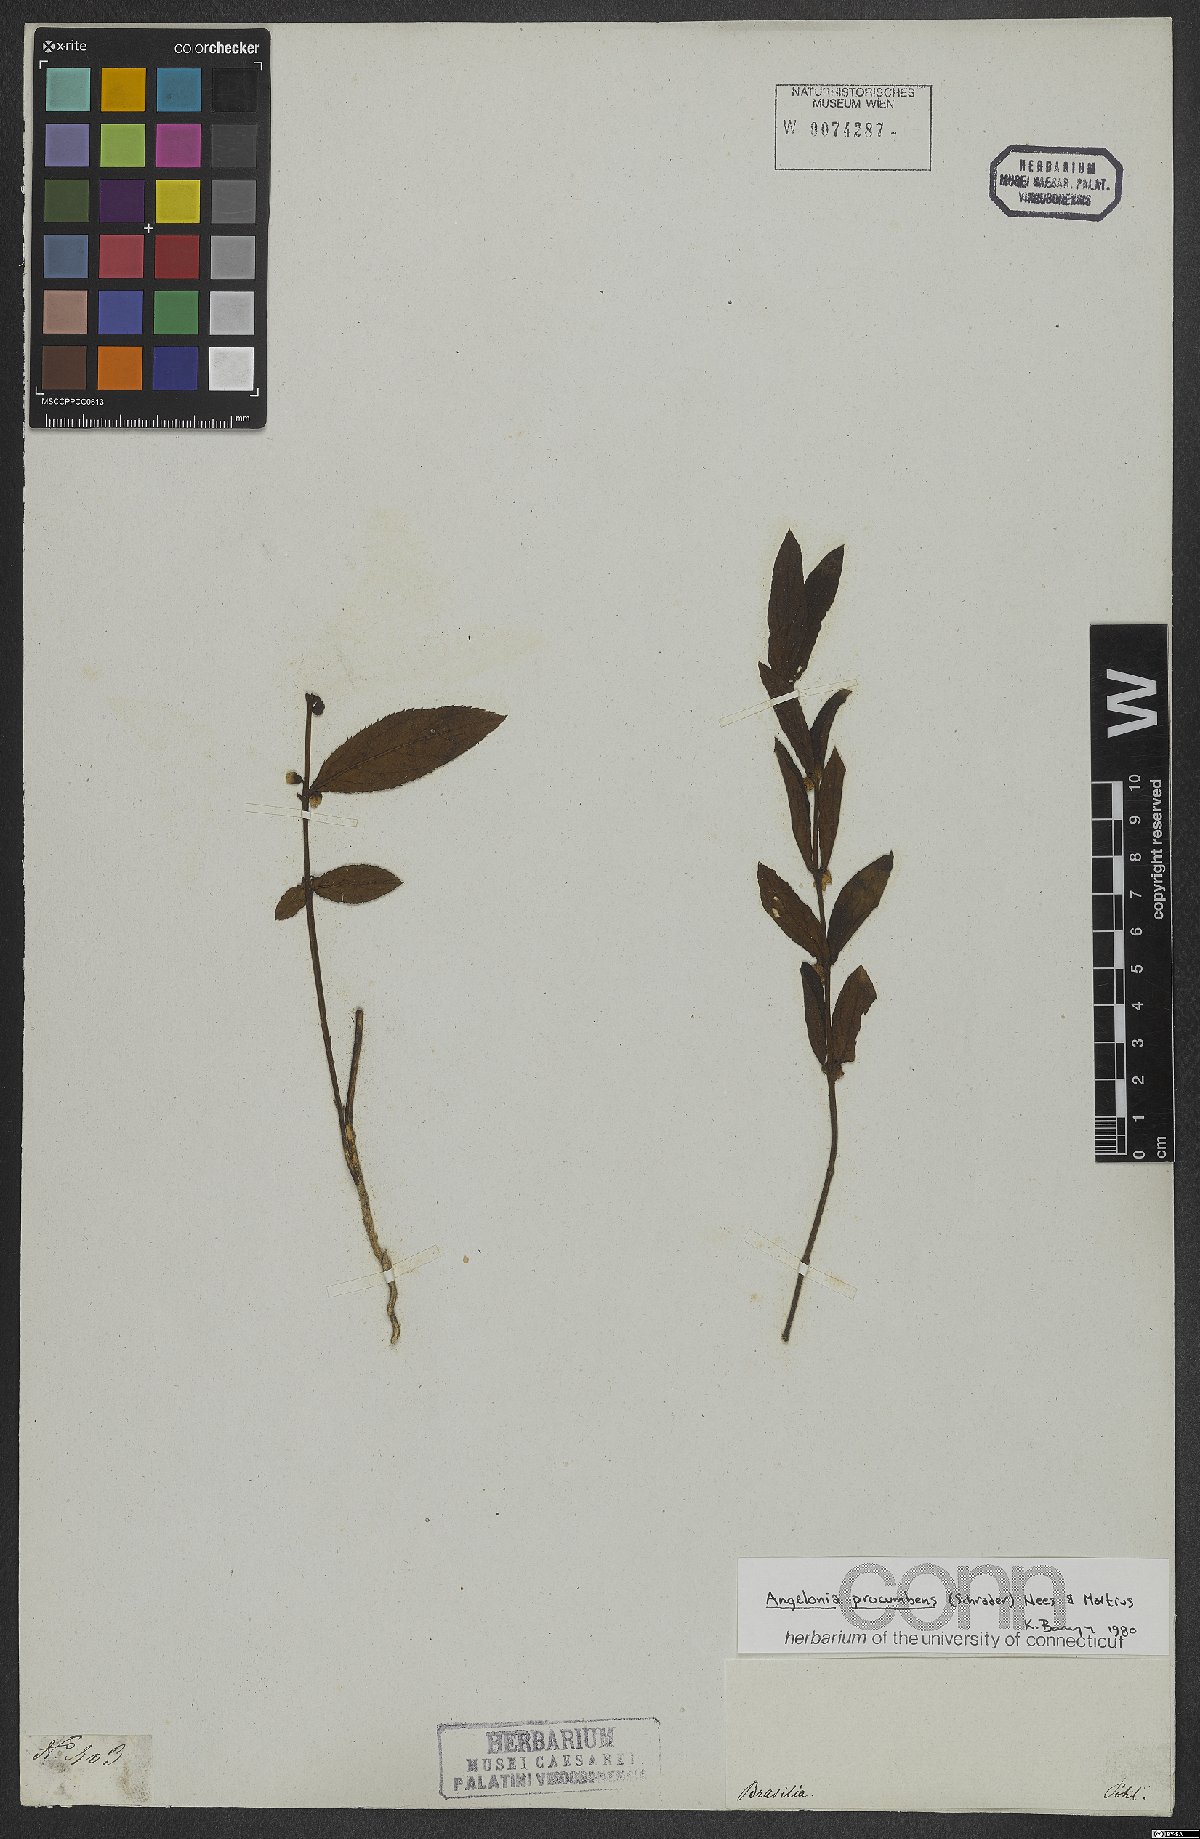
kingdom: Plantae
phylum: Tracheophyta
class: Magnoliopsida
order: Lamiales
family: Plantaginaceae
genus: Angelonia
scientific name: Angelonia procumbens
